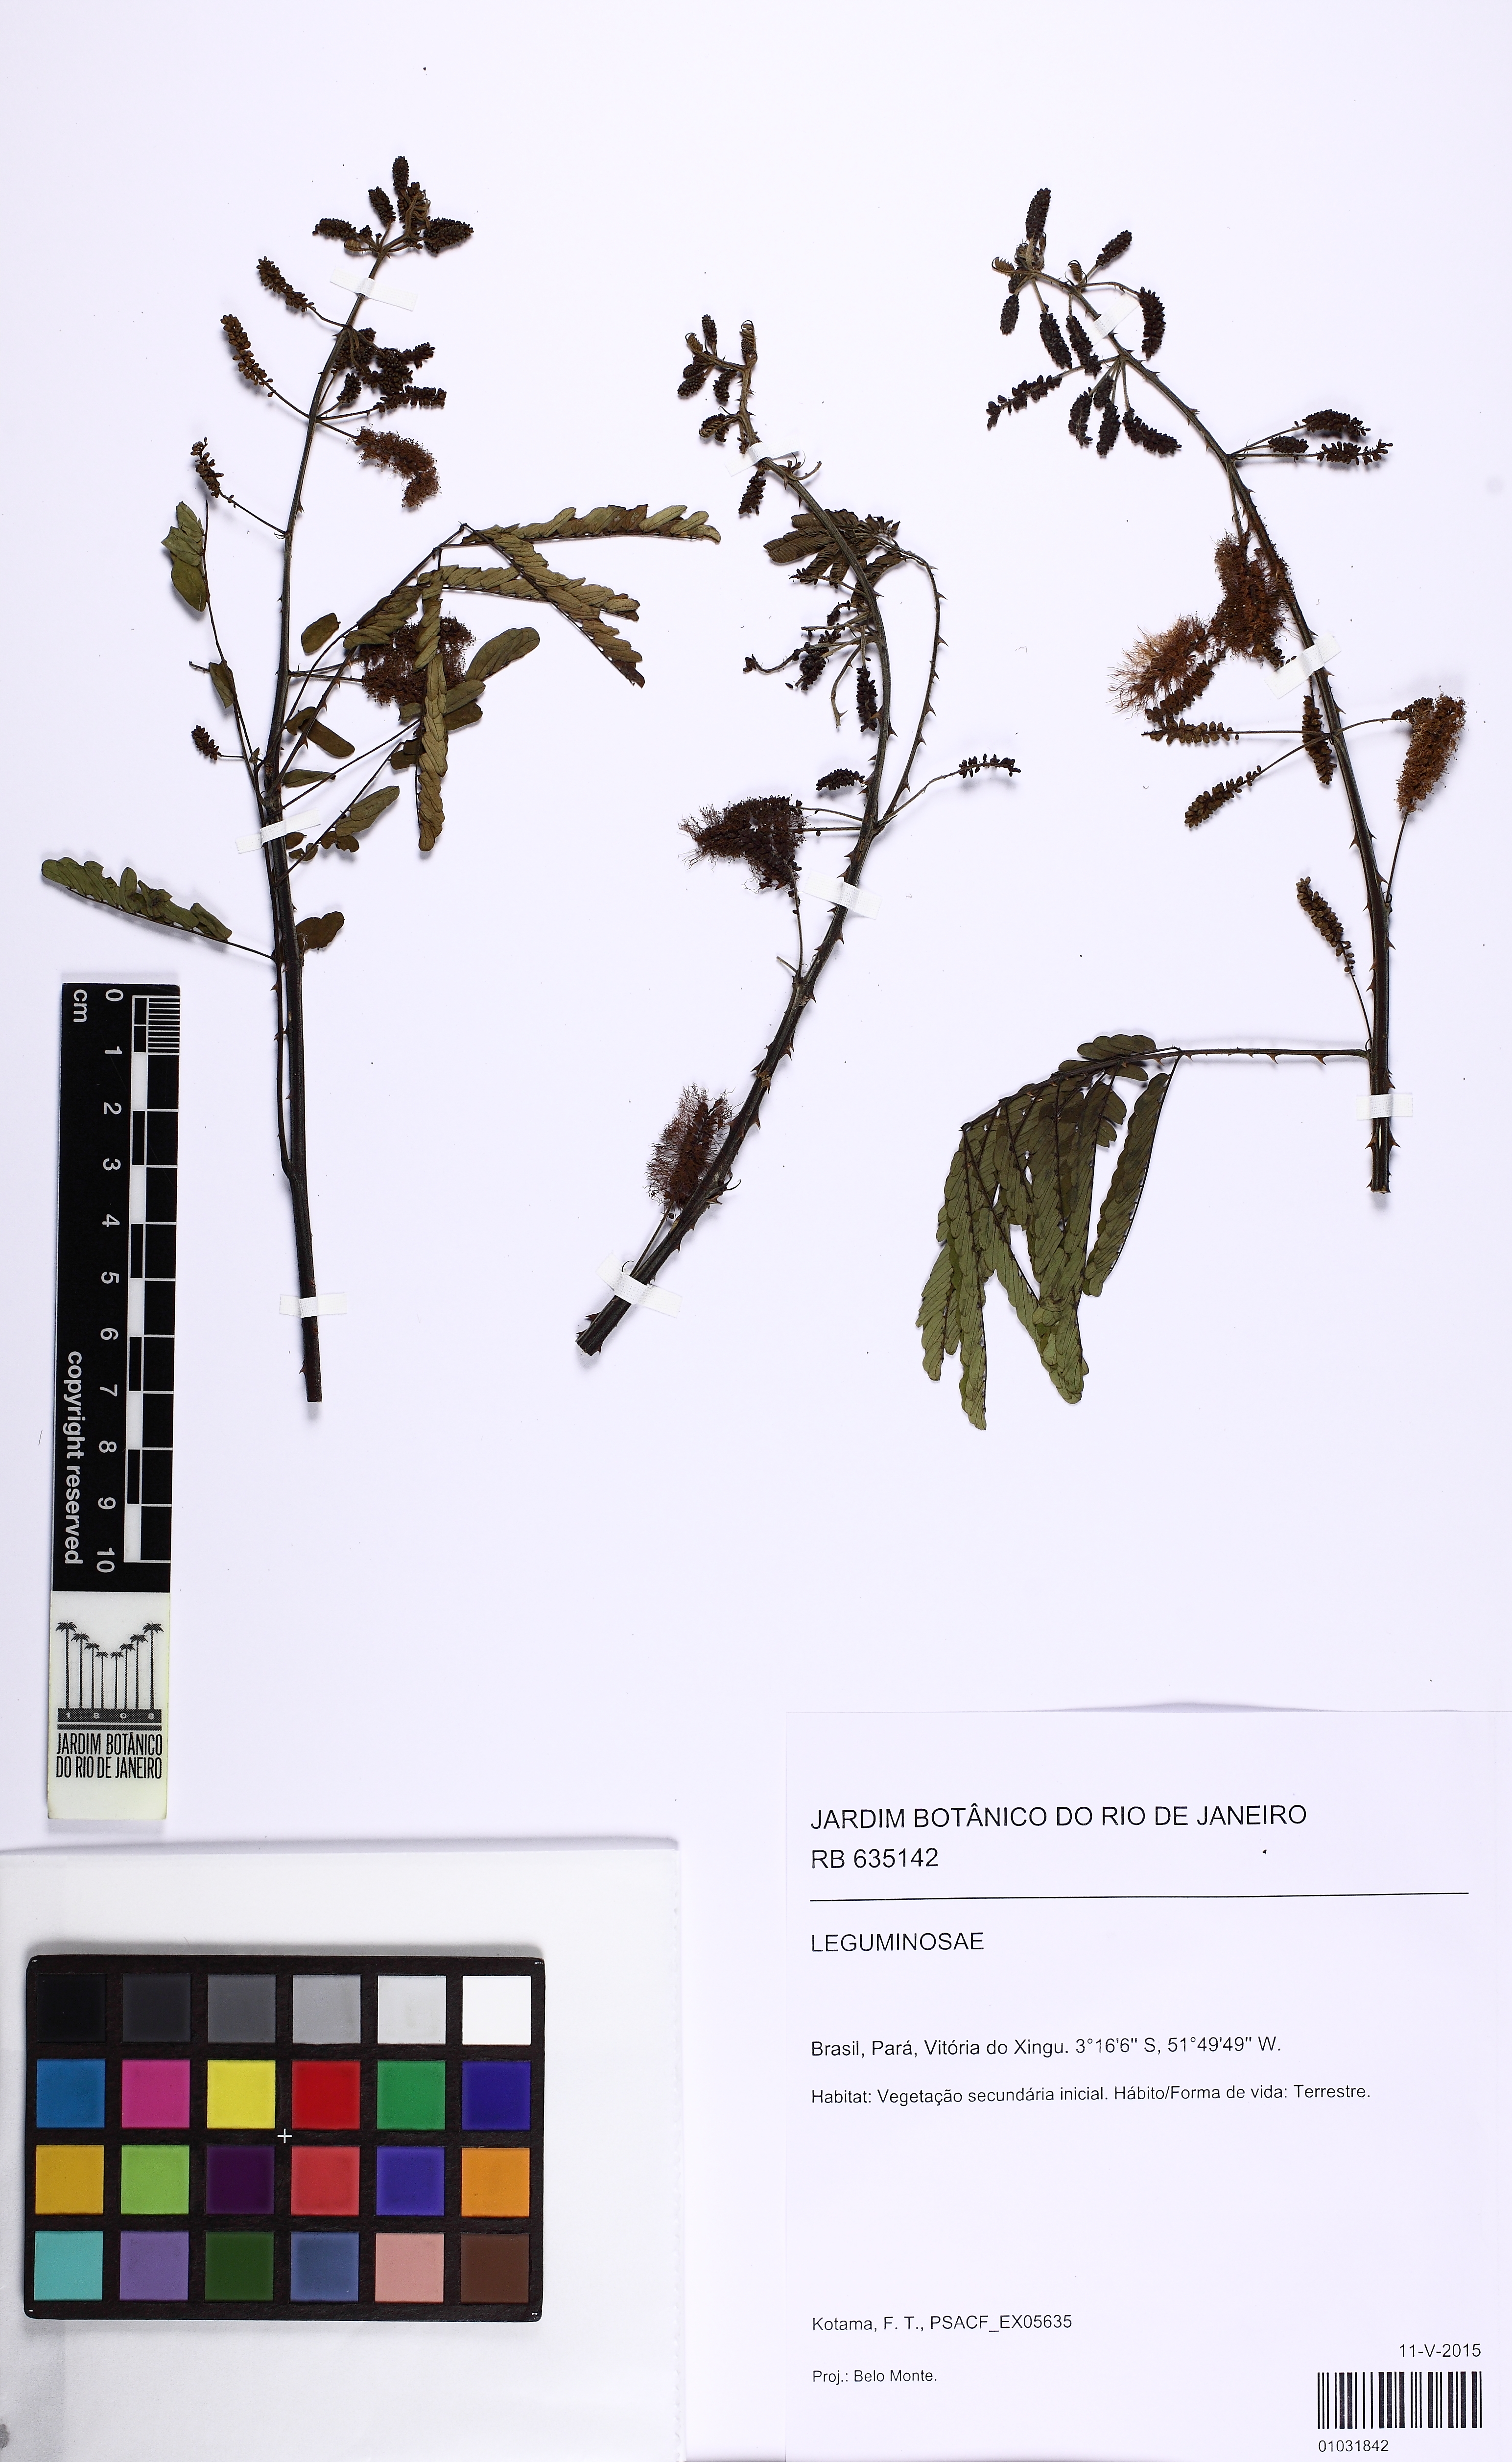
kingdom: Plantae
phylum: Tracheophyta
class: Magnoliopsida
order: Fabales
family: Fabaceae
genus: Mimosa
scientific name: Mimosa
